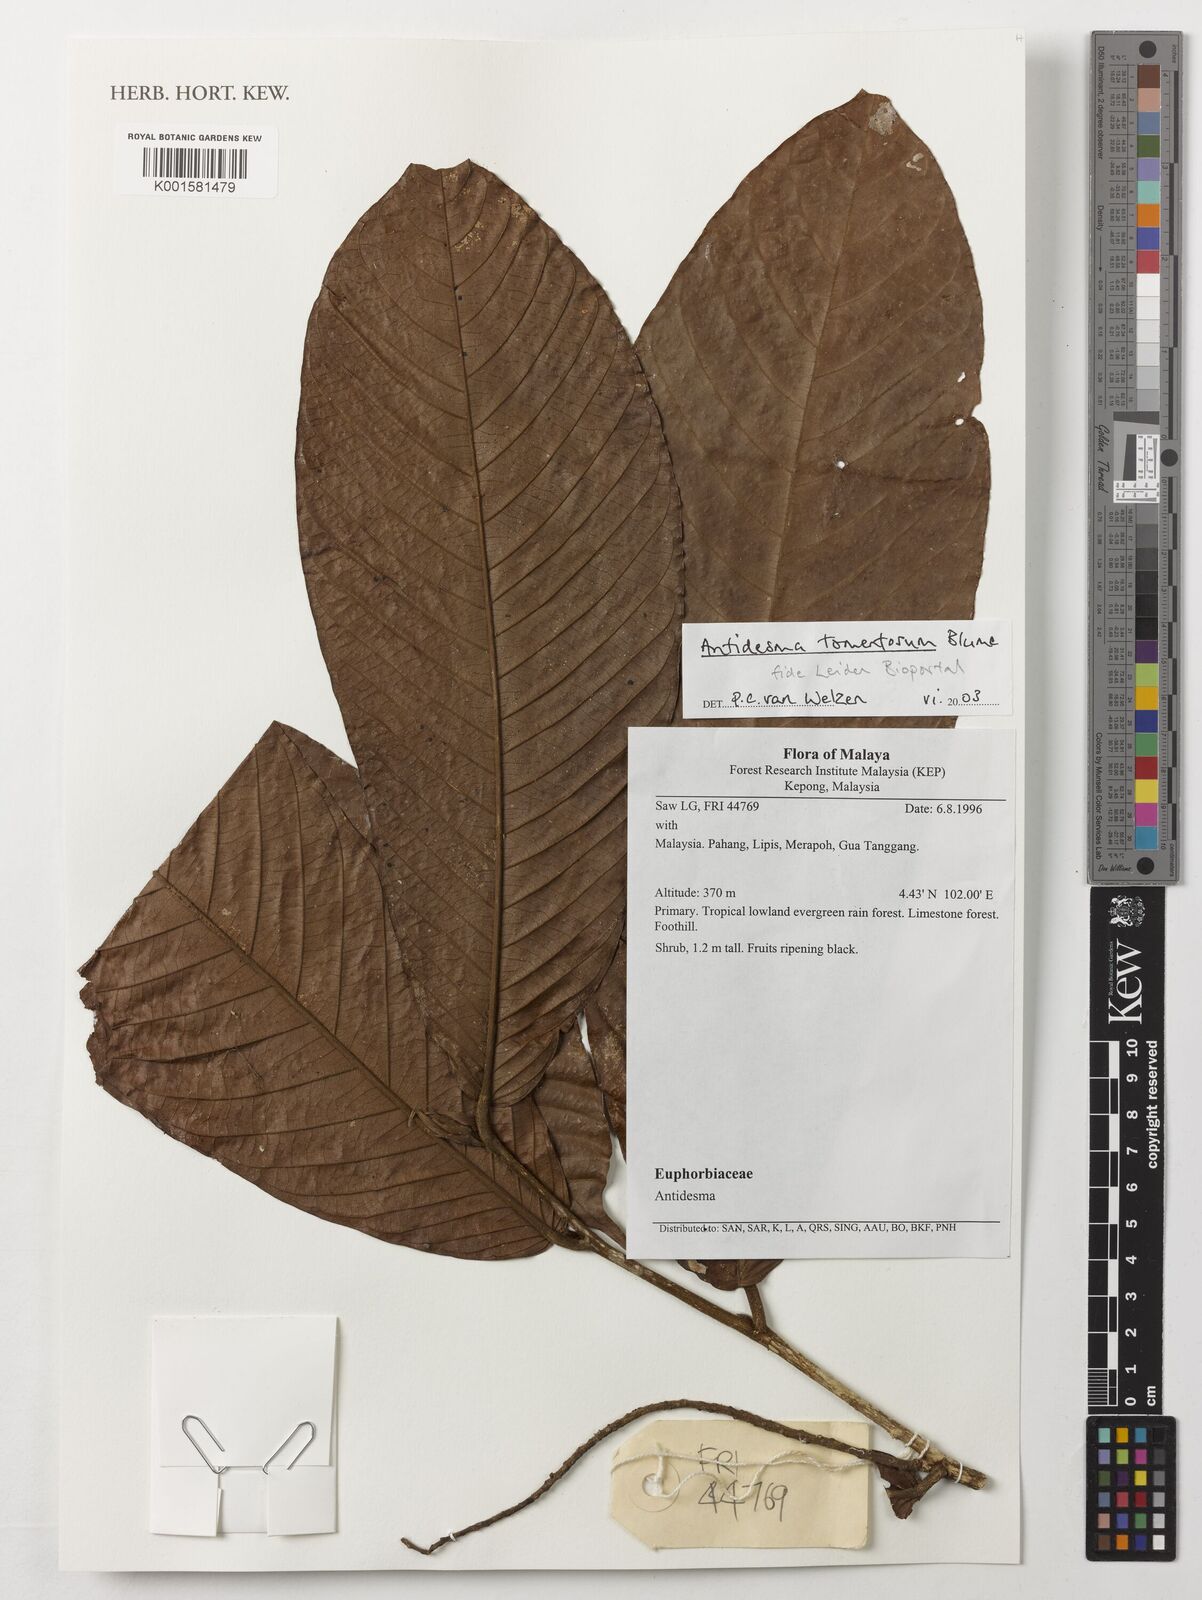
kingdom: Plantae
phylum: Tracheophyta
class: Magnoliopsida
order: Malpighiales
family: Phyllanthaceae
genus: Antidesma
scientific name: Antidesma tomentosum
